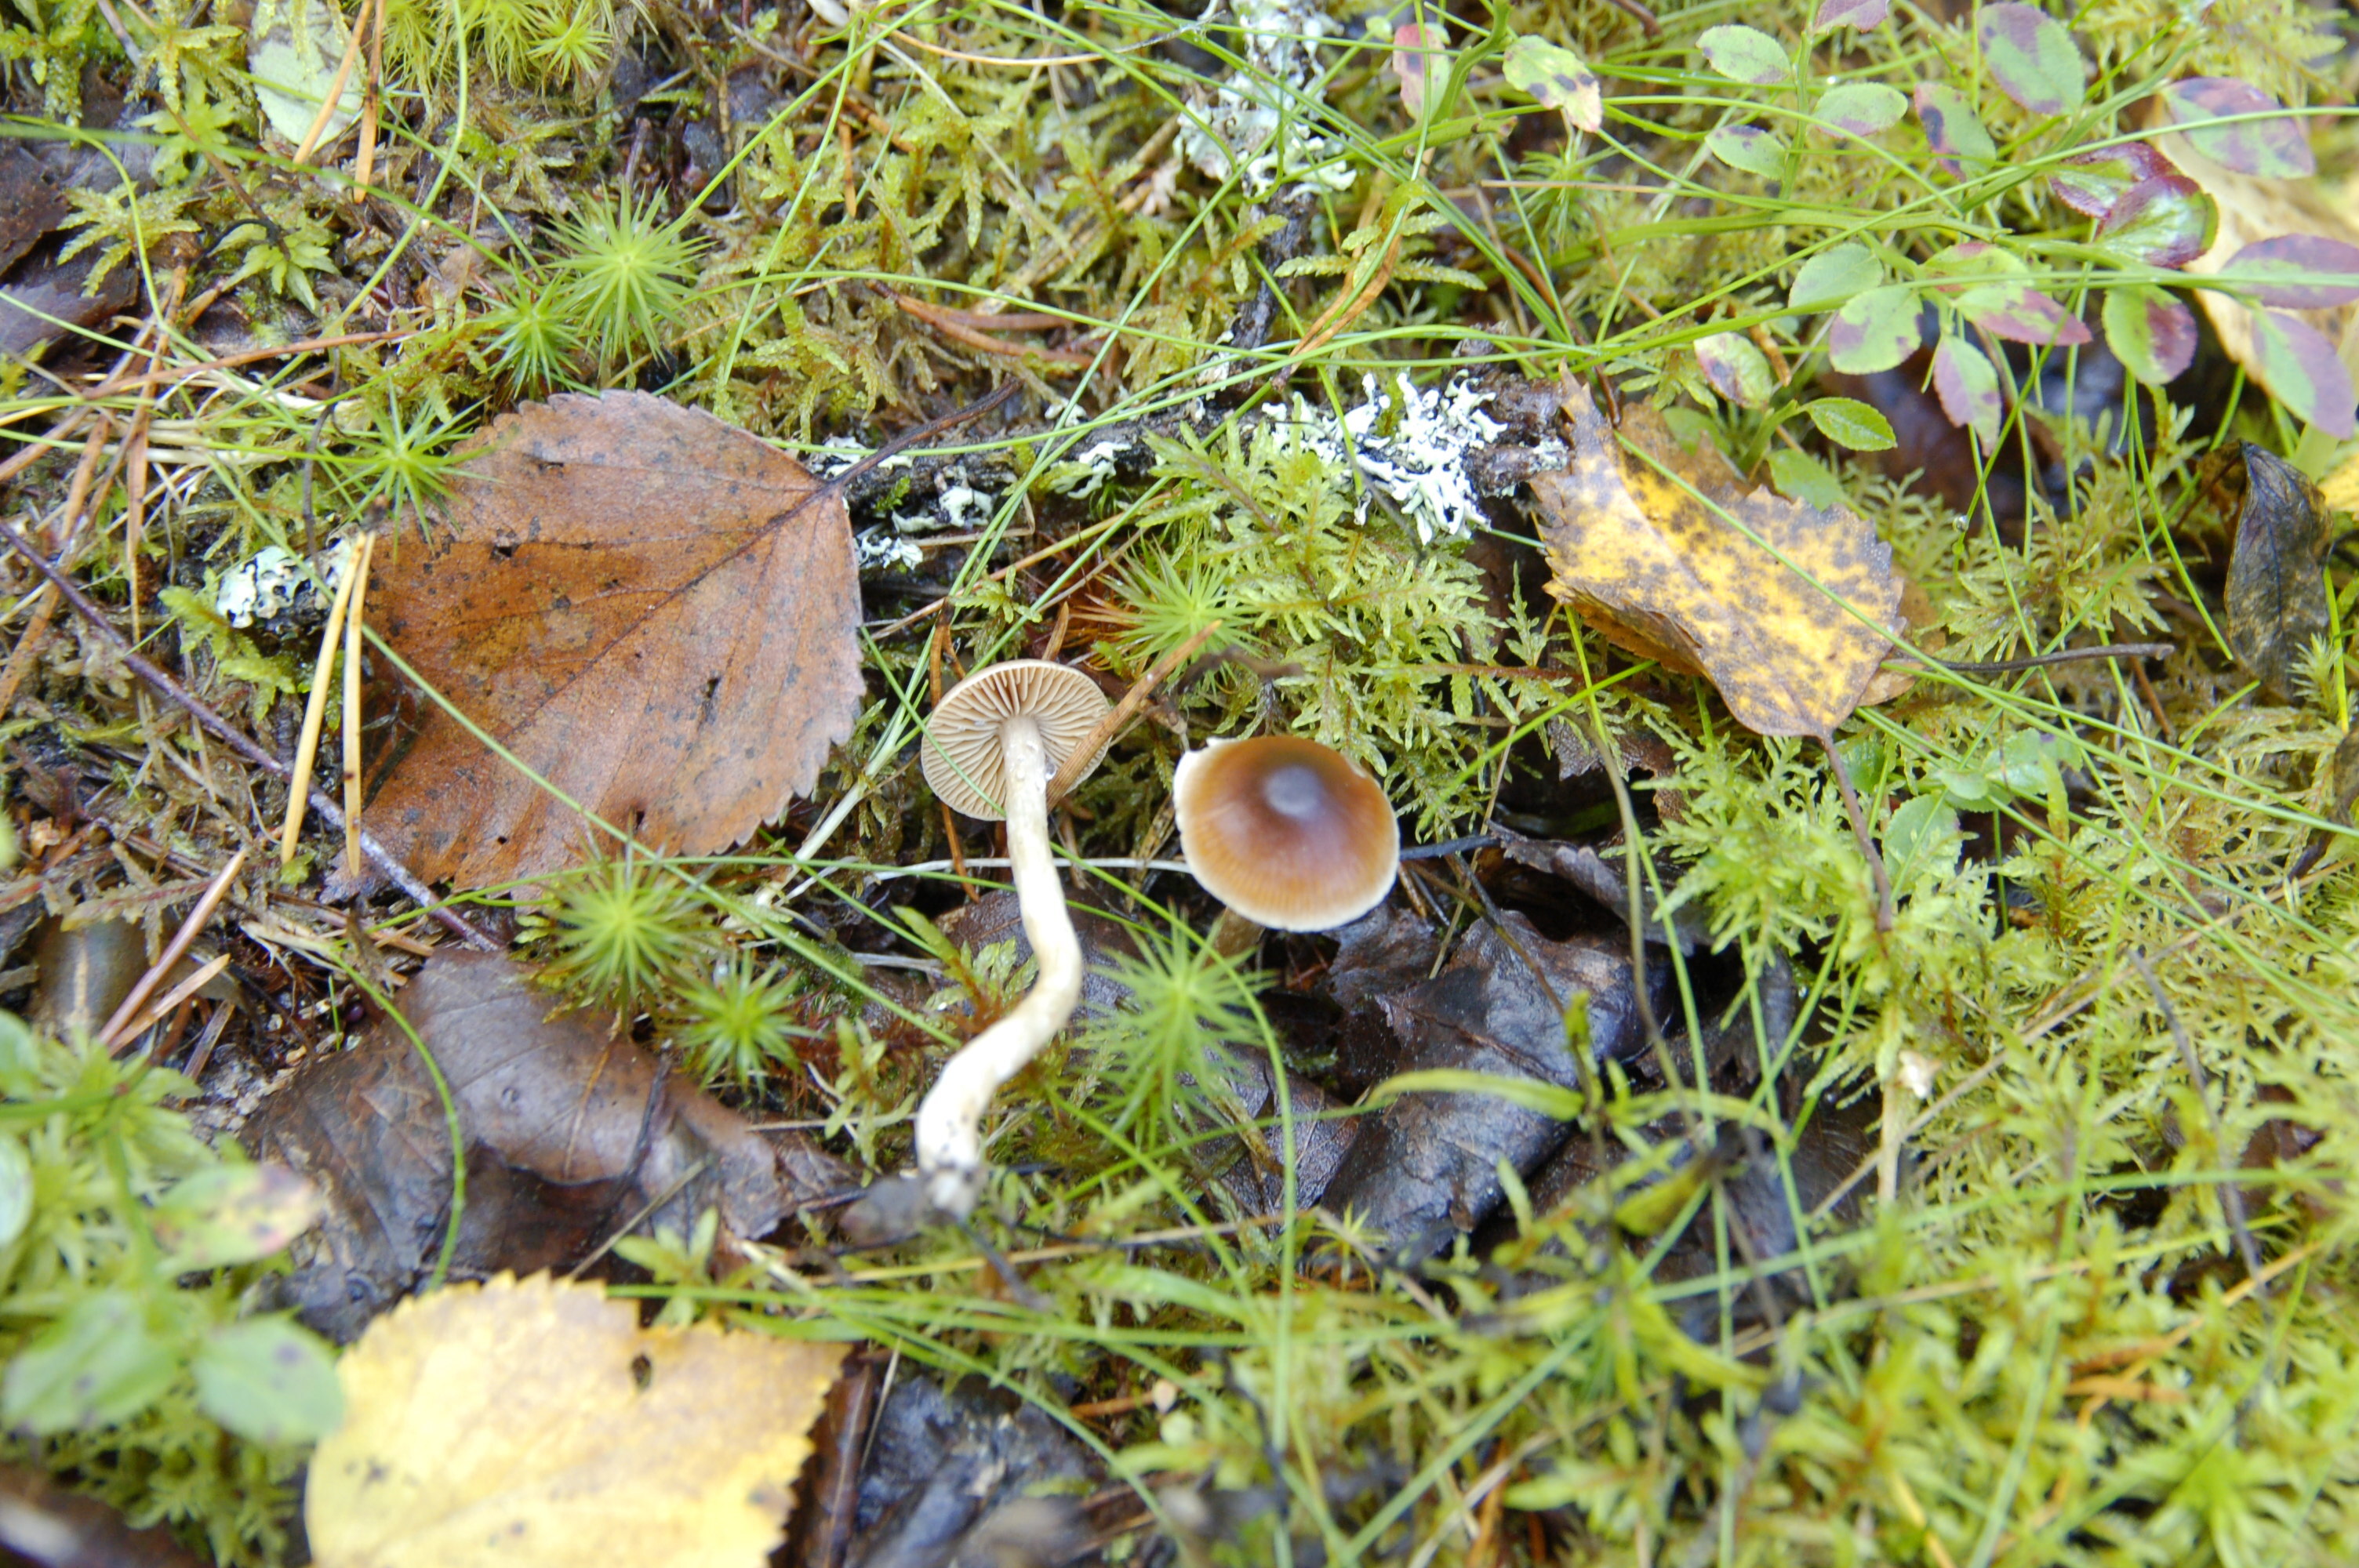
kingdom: Fungi
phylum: Basidiomycota
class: Agaricomycetes
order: Agaricales
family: Cortinariaceae
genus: Cortinarius
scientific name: Cortinarius
